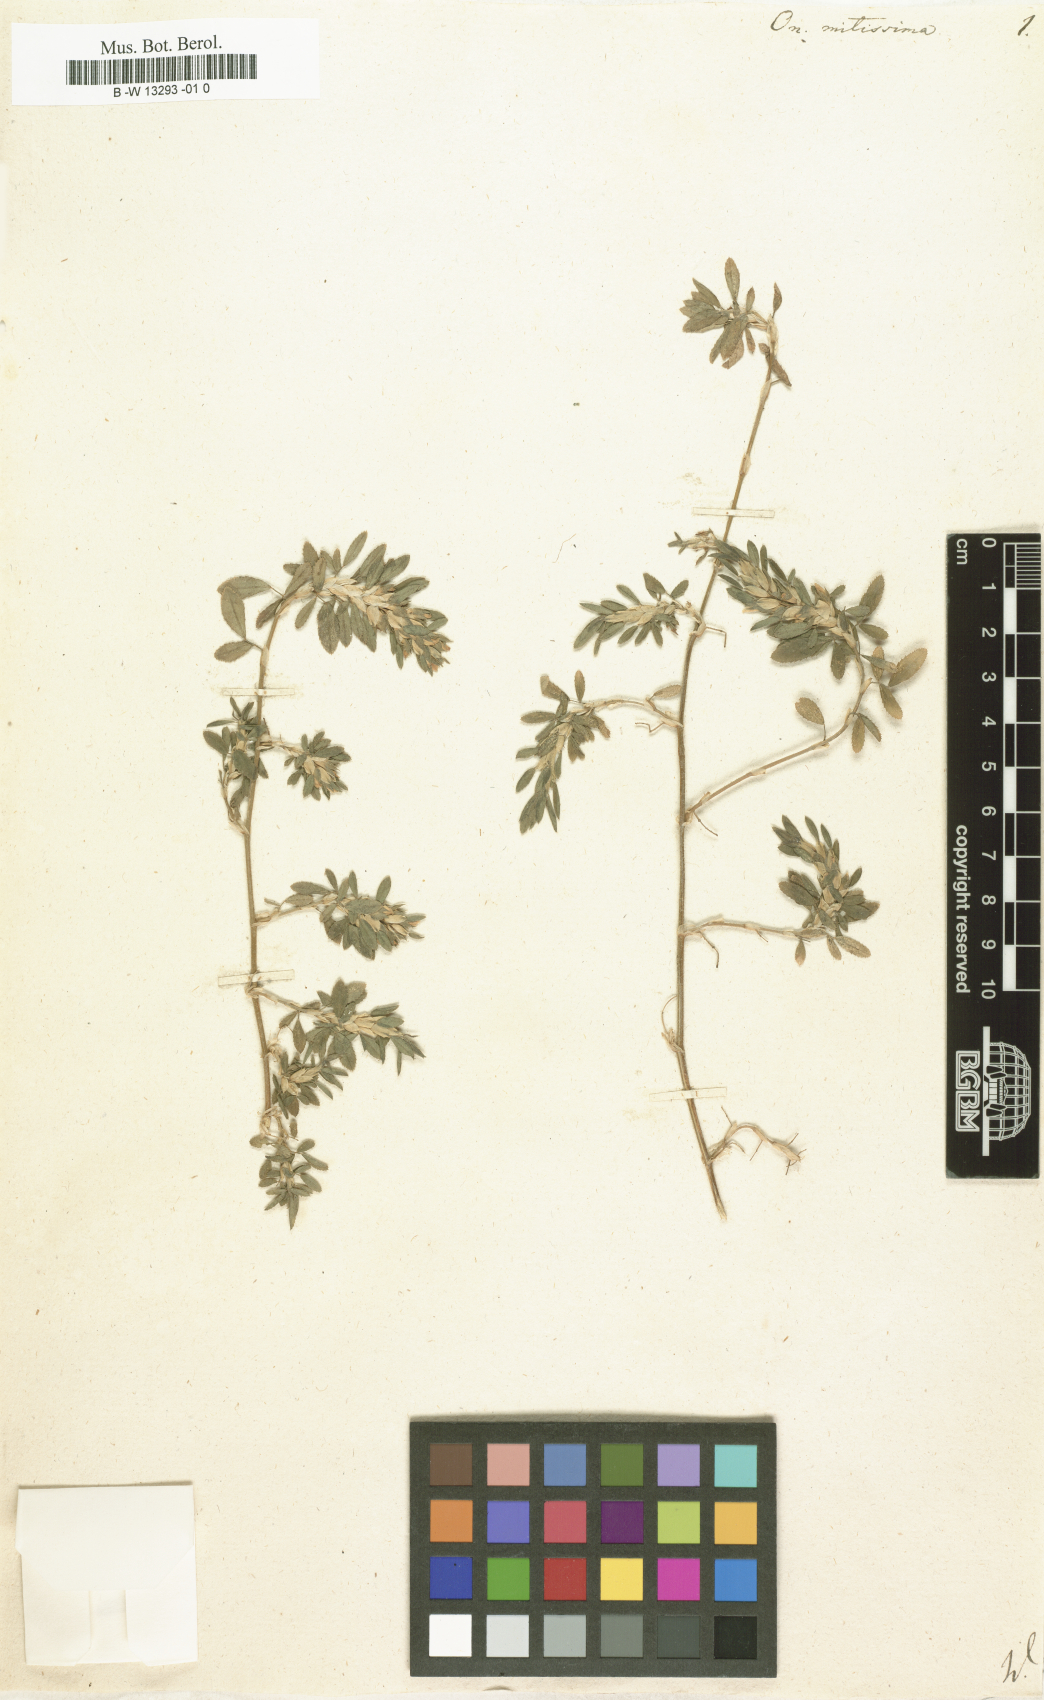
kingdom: Plantae
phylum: Tracheophyta
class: Magnoliopsida
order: Fabales
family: Fabaceae
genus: Ononis
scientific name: Ononis mitissima
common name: Mediterranean restharrow
